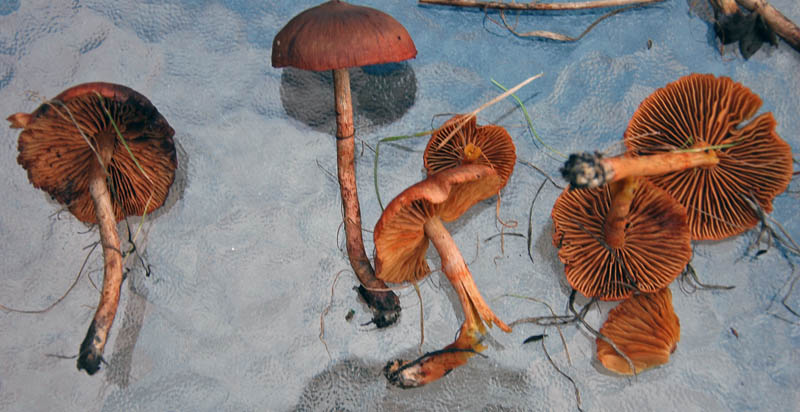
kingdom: Fungi
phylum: Basidiomycota
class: Agaricomycetes
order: Agaricales
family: Cortinariaceae
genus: Cortinarius
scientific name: Cortinarius uliginosus
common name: mose-slørhat
